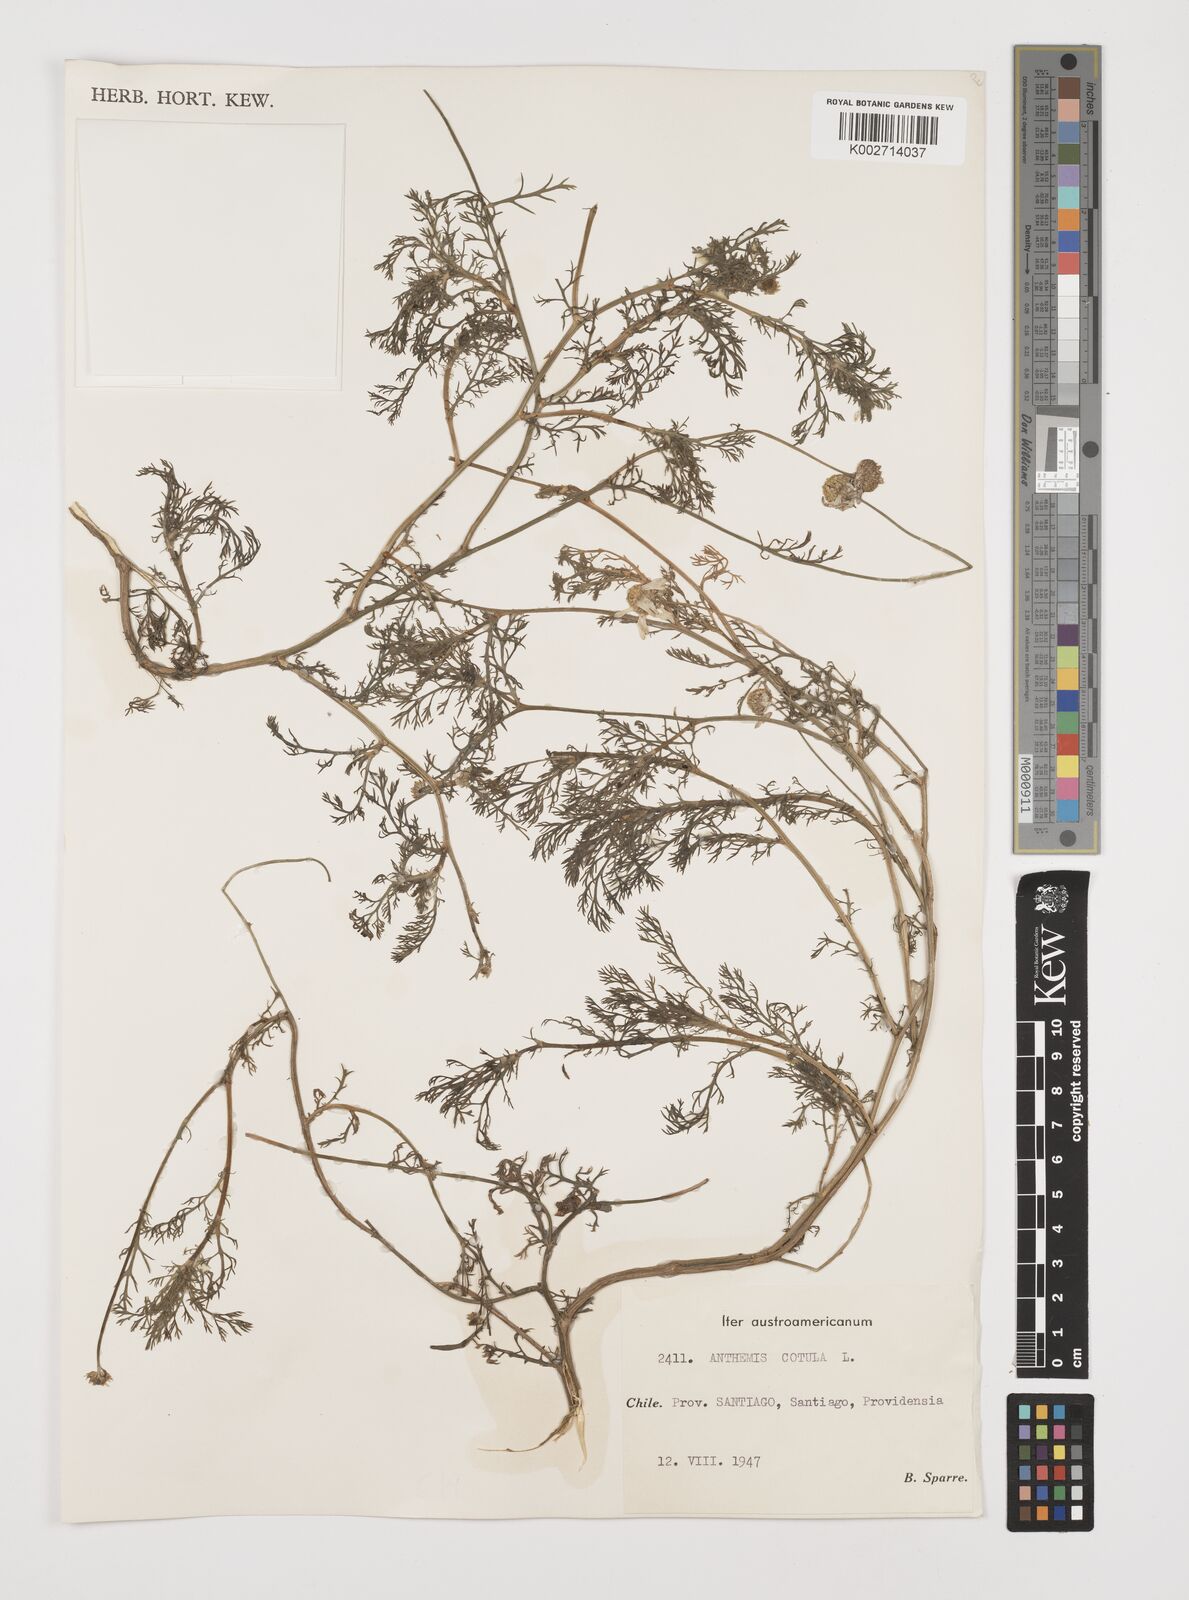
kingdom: Plantae
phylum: Tracheophyta
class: Magnoliopsida
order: Asterales
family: Asteraceae
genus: Anthemis
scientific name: Anthemis cotula
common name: Stinking chamomile
